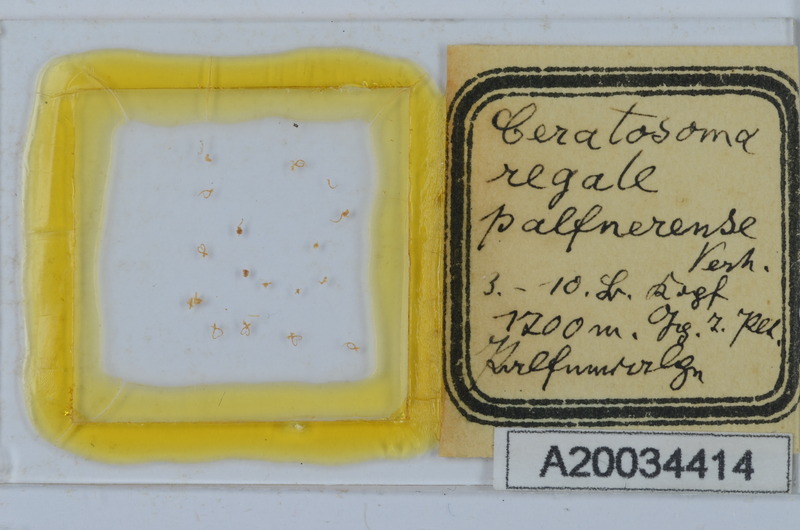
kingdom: Animalia
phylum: Arthropoda
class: Diplopoda
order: Chordeumatida
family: Craspedosomatidae
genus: Euceratosoma
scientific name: Euceratosoma regale
